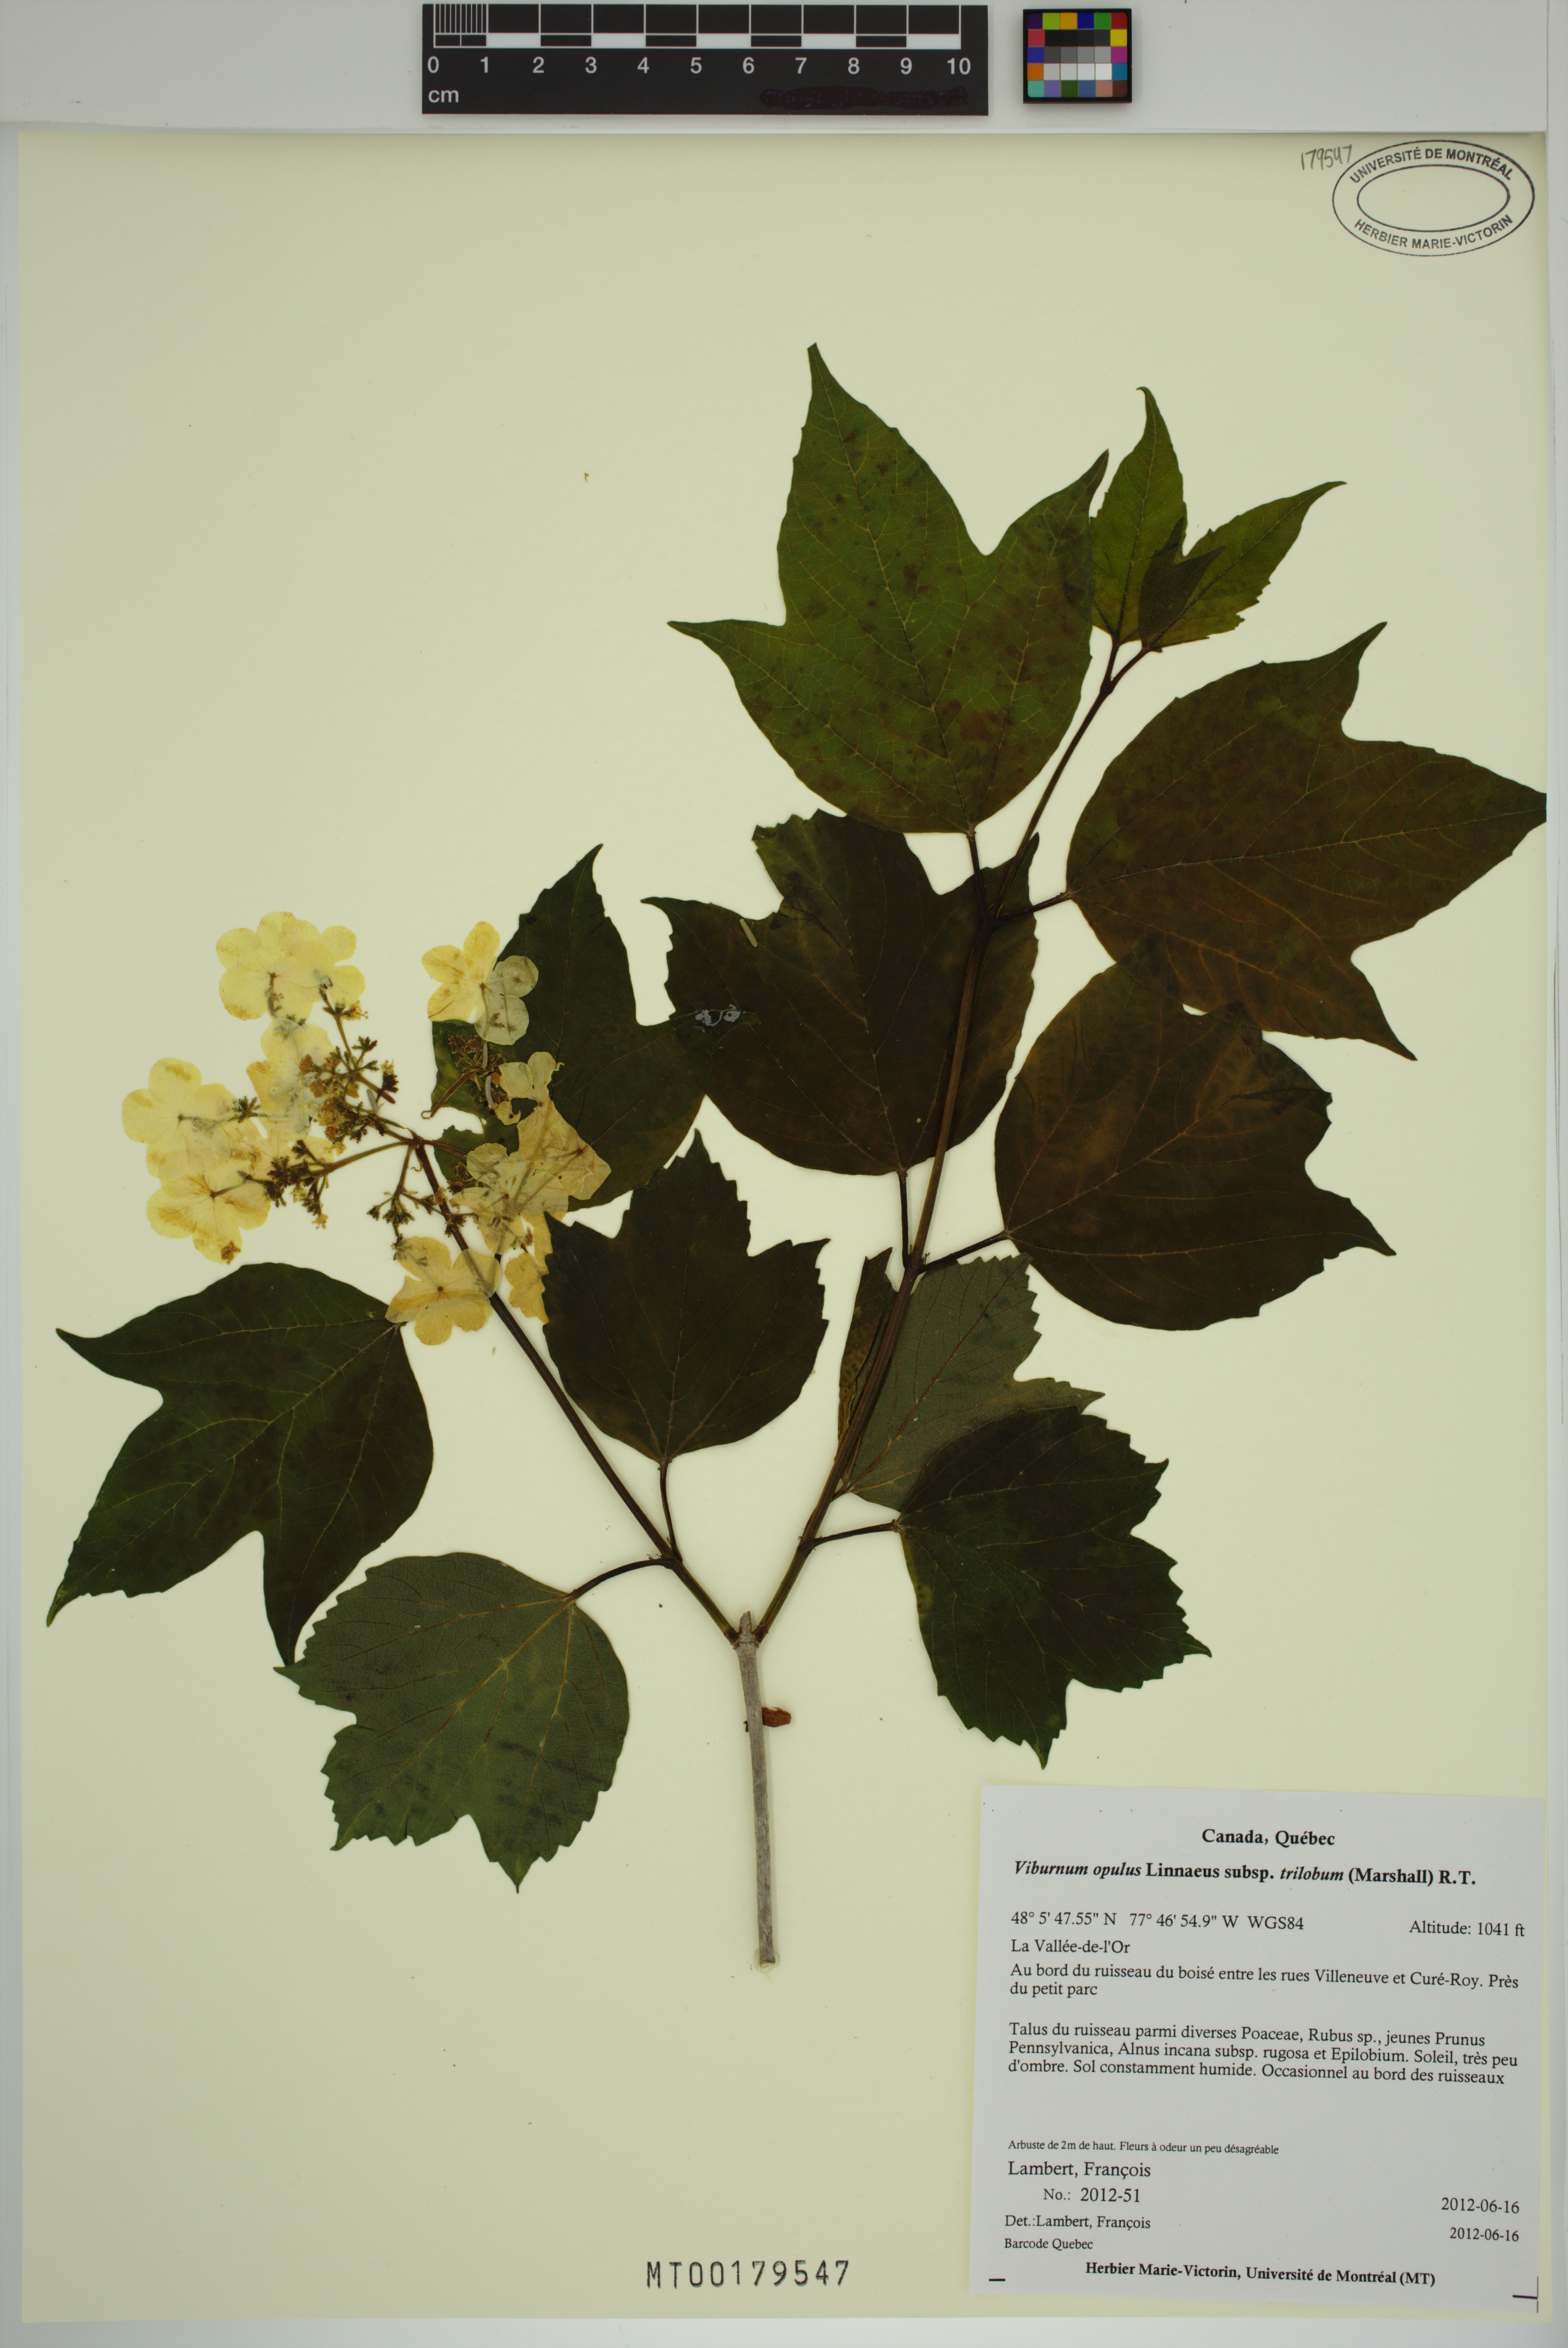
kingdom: Plantae
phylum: Tracheophyta
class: Magnoliopsida
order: Dipsacales
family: Viburnaceae
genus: Viburnum
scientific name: Viburnum trilobum
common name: American cranberrybush
